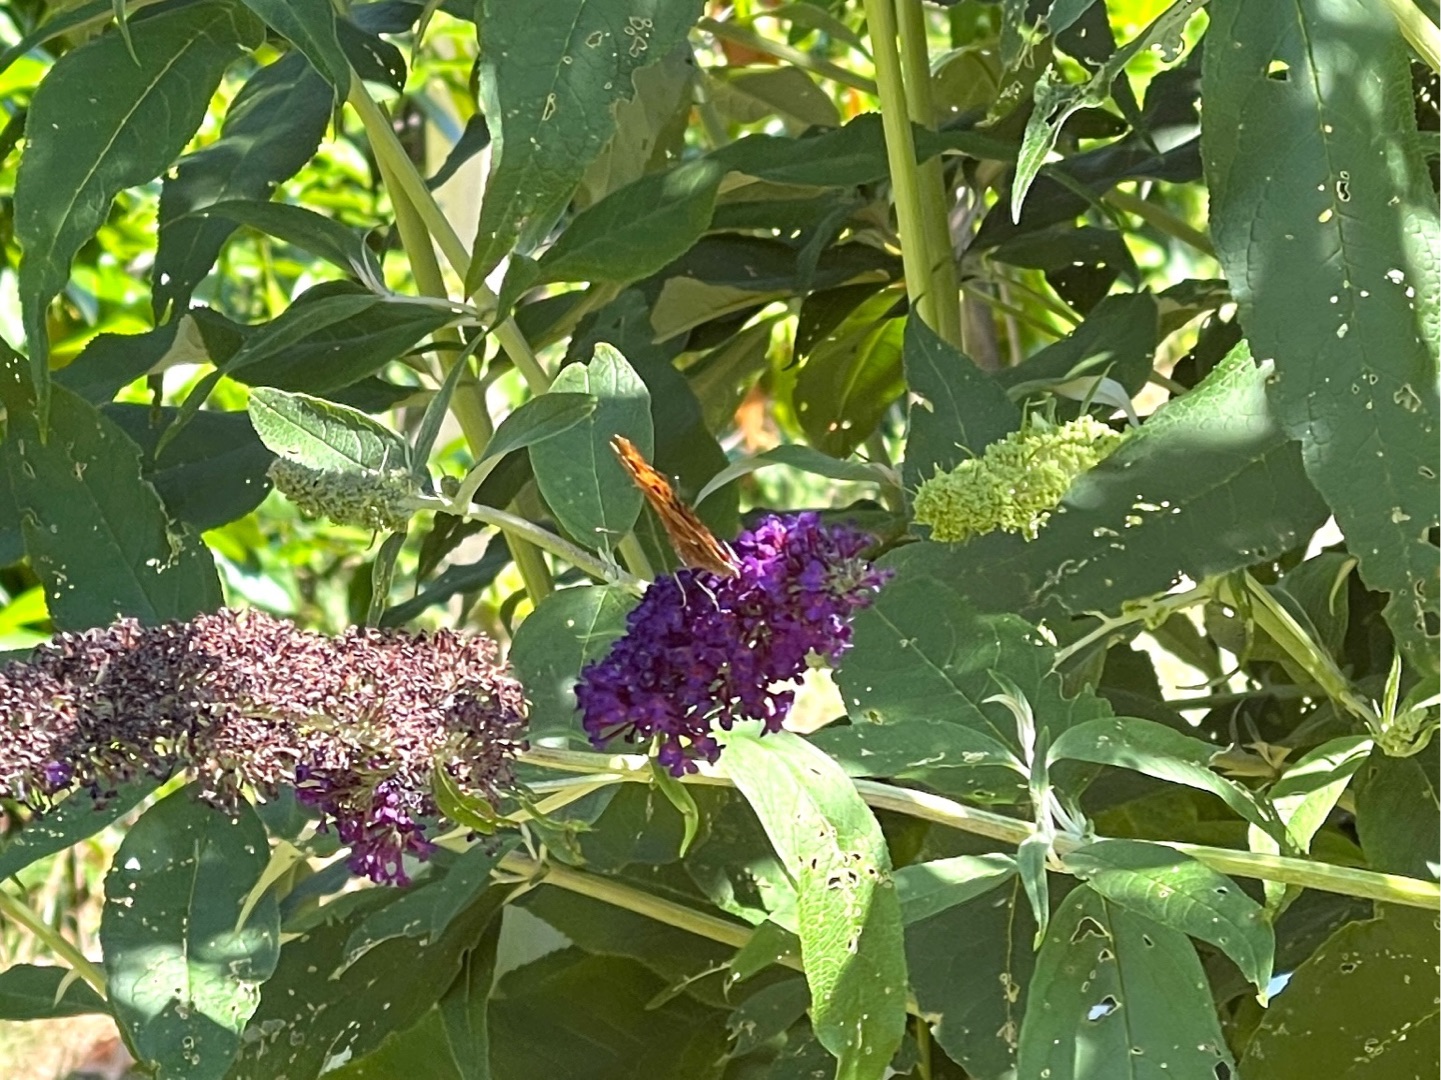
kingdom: Animalia
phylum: Arthropoda
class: Insecta
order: Lepidoptera
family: Nymphalidae
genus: Polygonia
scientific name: Polygonia c-album
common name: Det hvide C
